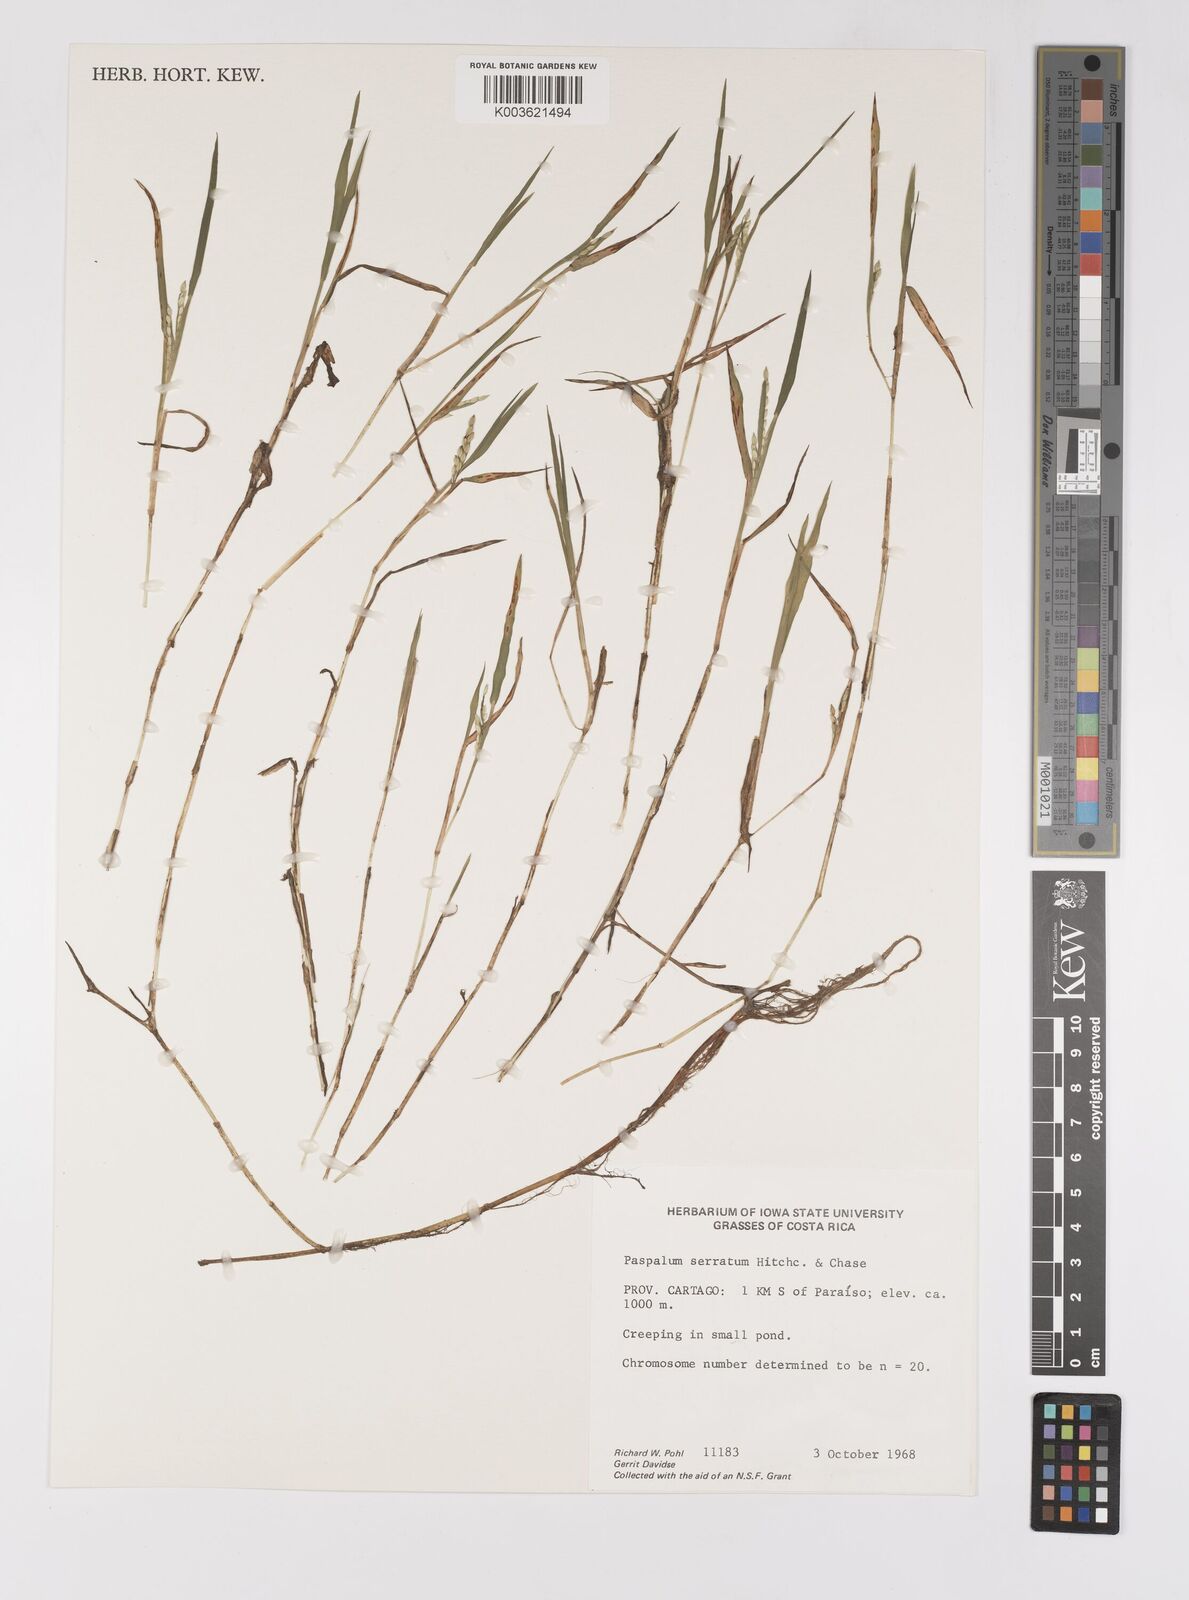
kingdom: Plantae
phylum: Tracheophyta
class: Liliopsida
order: Poales
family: Poaceae
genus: Paspalum
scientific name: Paspalum acuminatum
